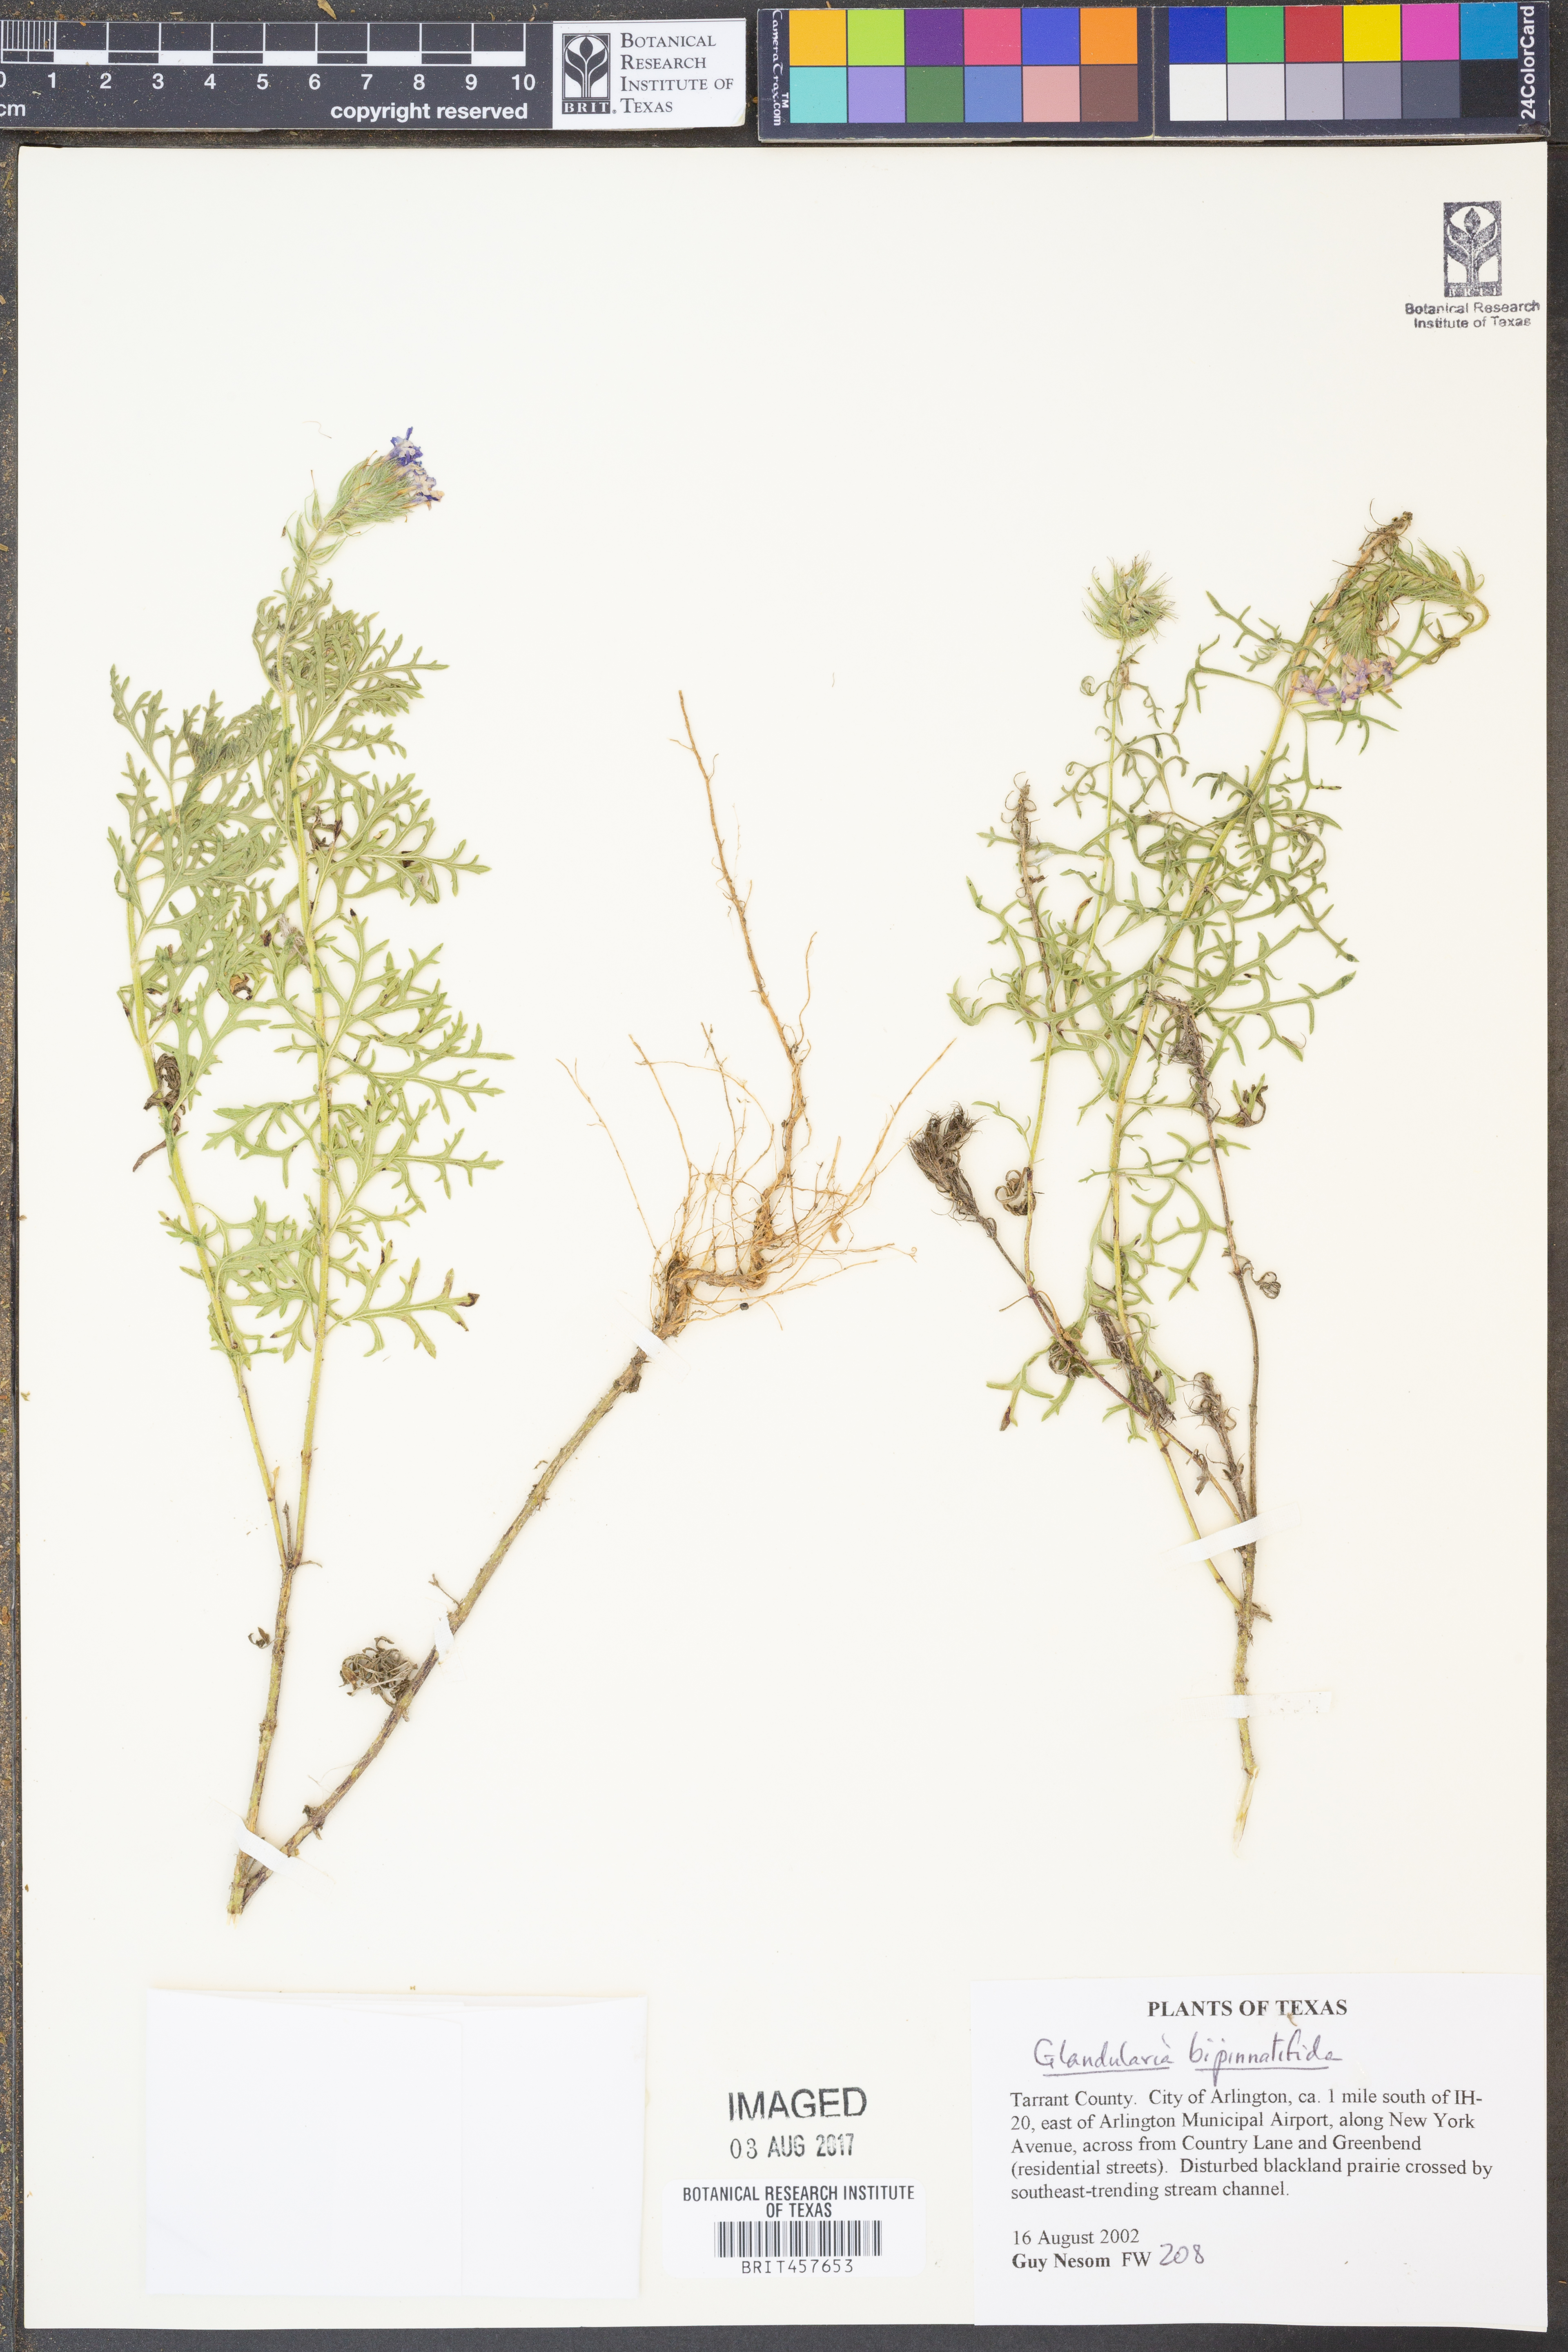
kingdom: Plantae
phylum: Tracheophyta
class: Magnoliopsida
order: Lamiales
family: Verbenaceae
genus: Verbena
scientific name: Verbena bipinnatifida
